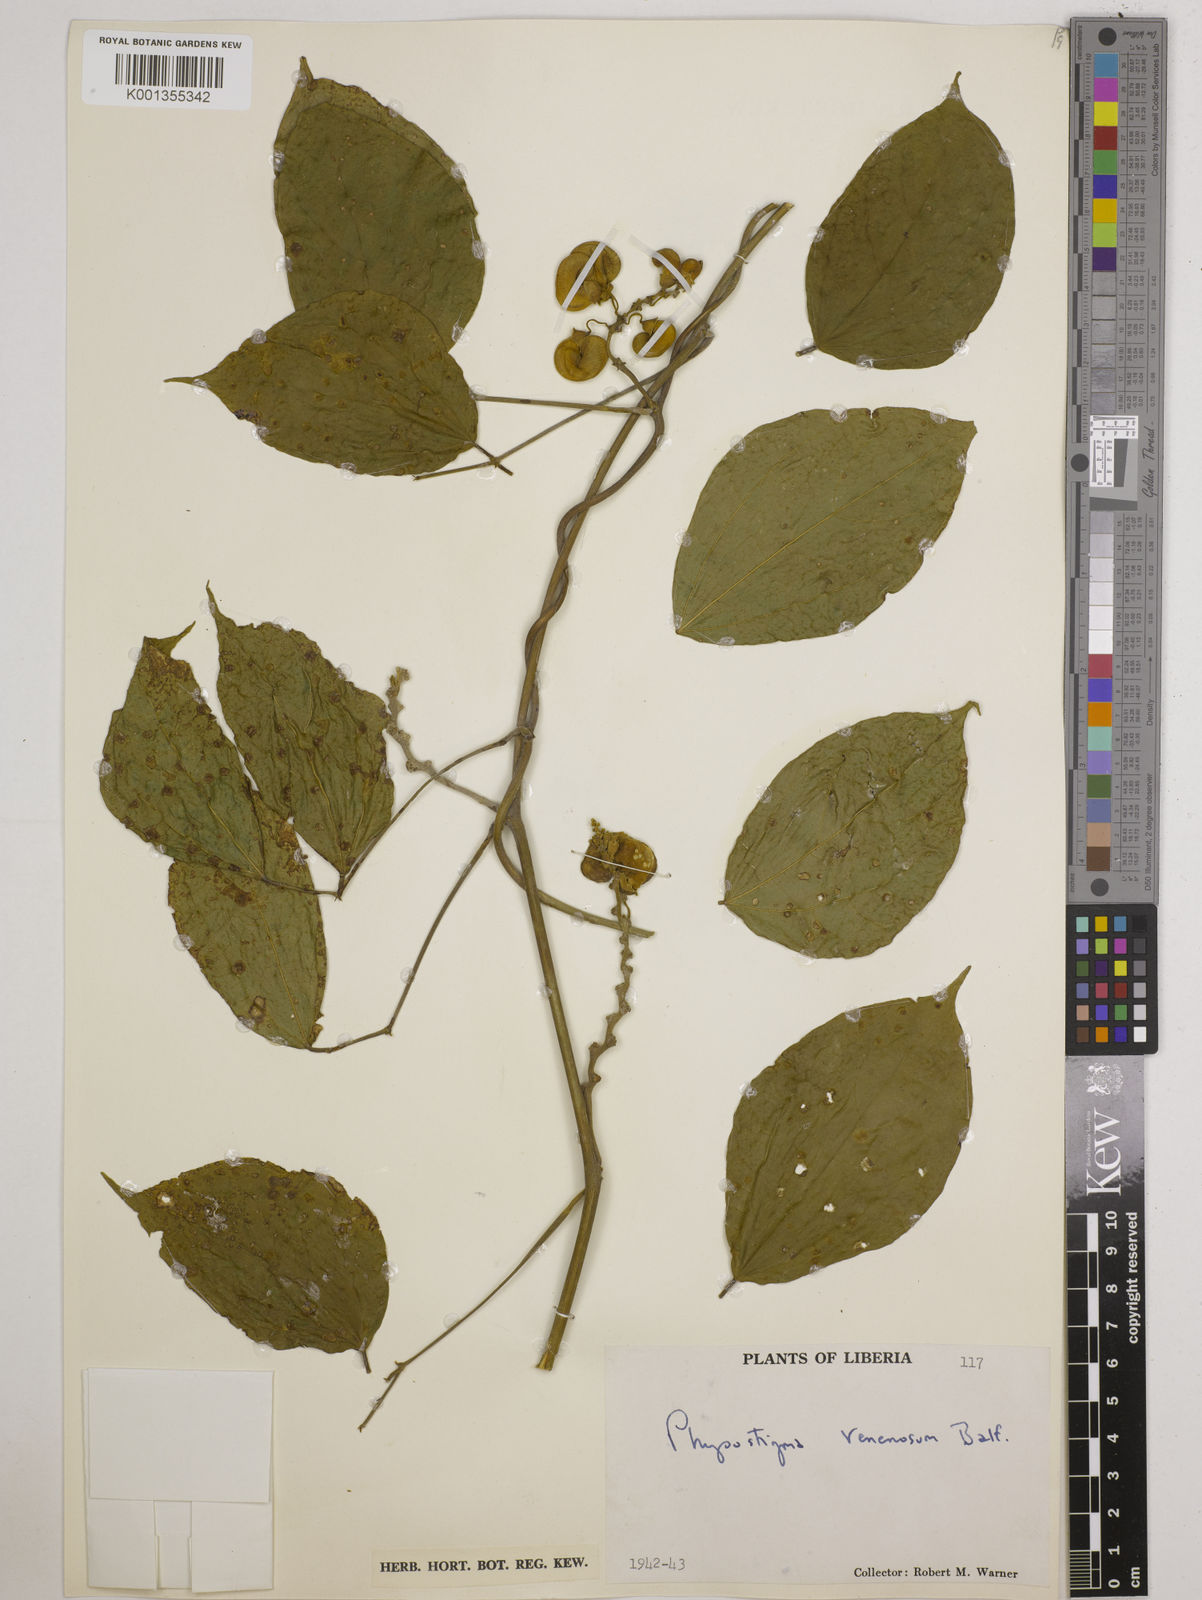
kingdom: Plantae
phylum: Tracheophyta
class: Magnoliopsida
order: Fabales
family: Fabaceae
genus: Physostigma
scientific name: Physostigma venenosum
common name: Calabar-bean
